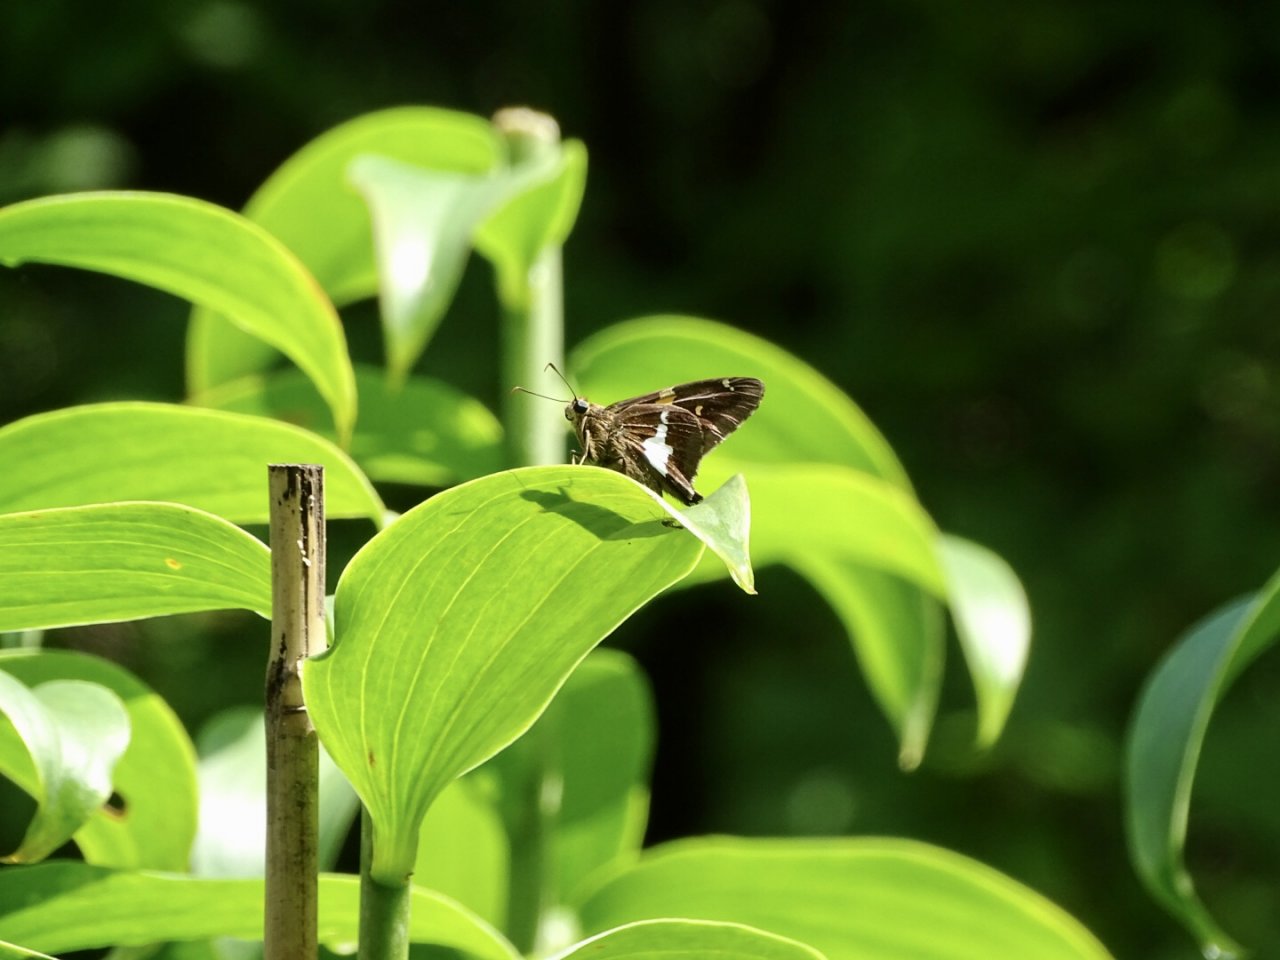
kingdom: Animalia
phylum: Arthropoda
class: Insecta
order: Lepidoptera
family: Hesperiidae
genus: Epargyreus
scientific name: Epargyreus clarus
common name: Silver-spotted Skipper
